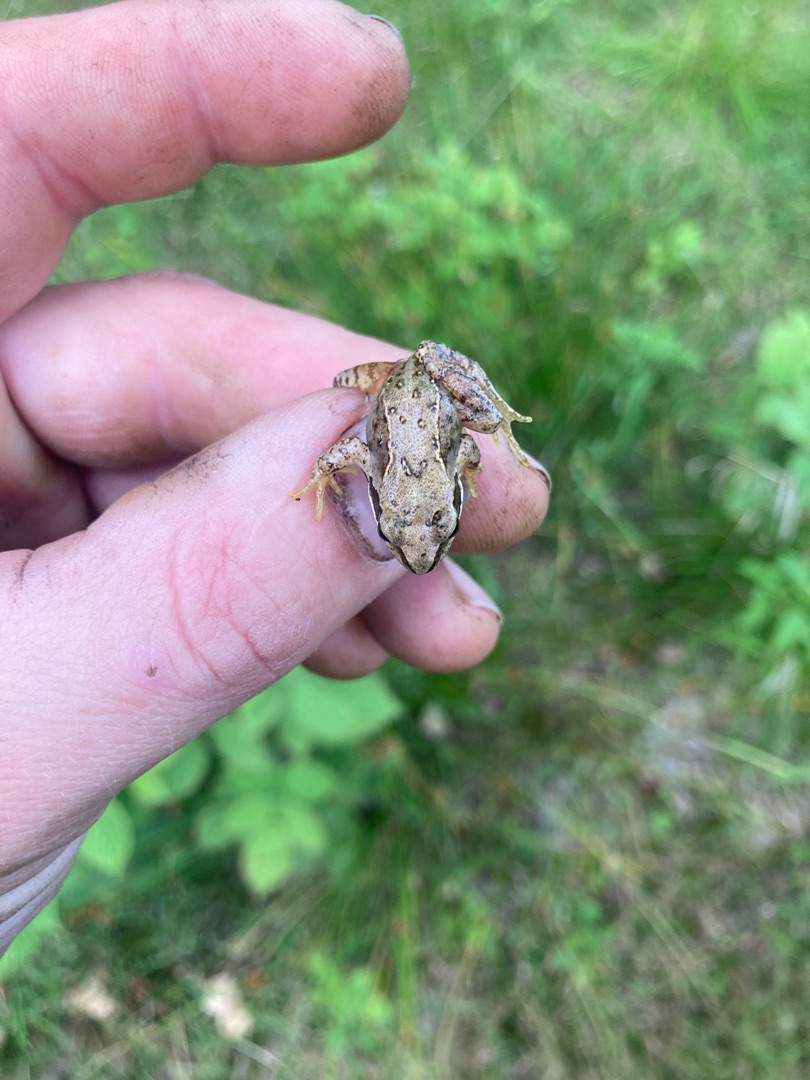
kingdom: Animalia
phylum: Chordata
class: Amphibia
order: Anura
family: Ranidae
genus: Rana
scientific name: Rana temporaria
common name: Butsnudet frø
